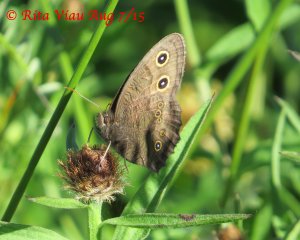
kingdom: Animalia
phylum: Arthropoda
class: Insecta
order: Lepidoptera
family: Nymphalidae
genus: Cercyonis
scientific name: Cercyonis pegala
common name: Common Wood-Nymph
